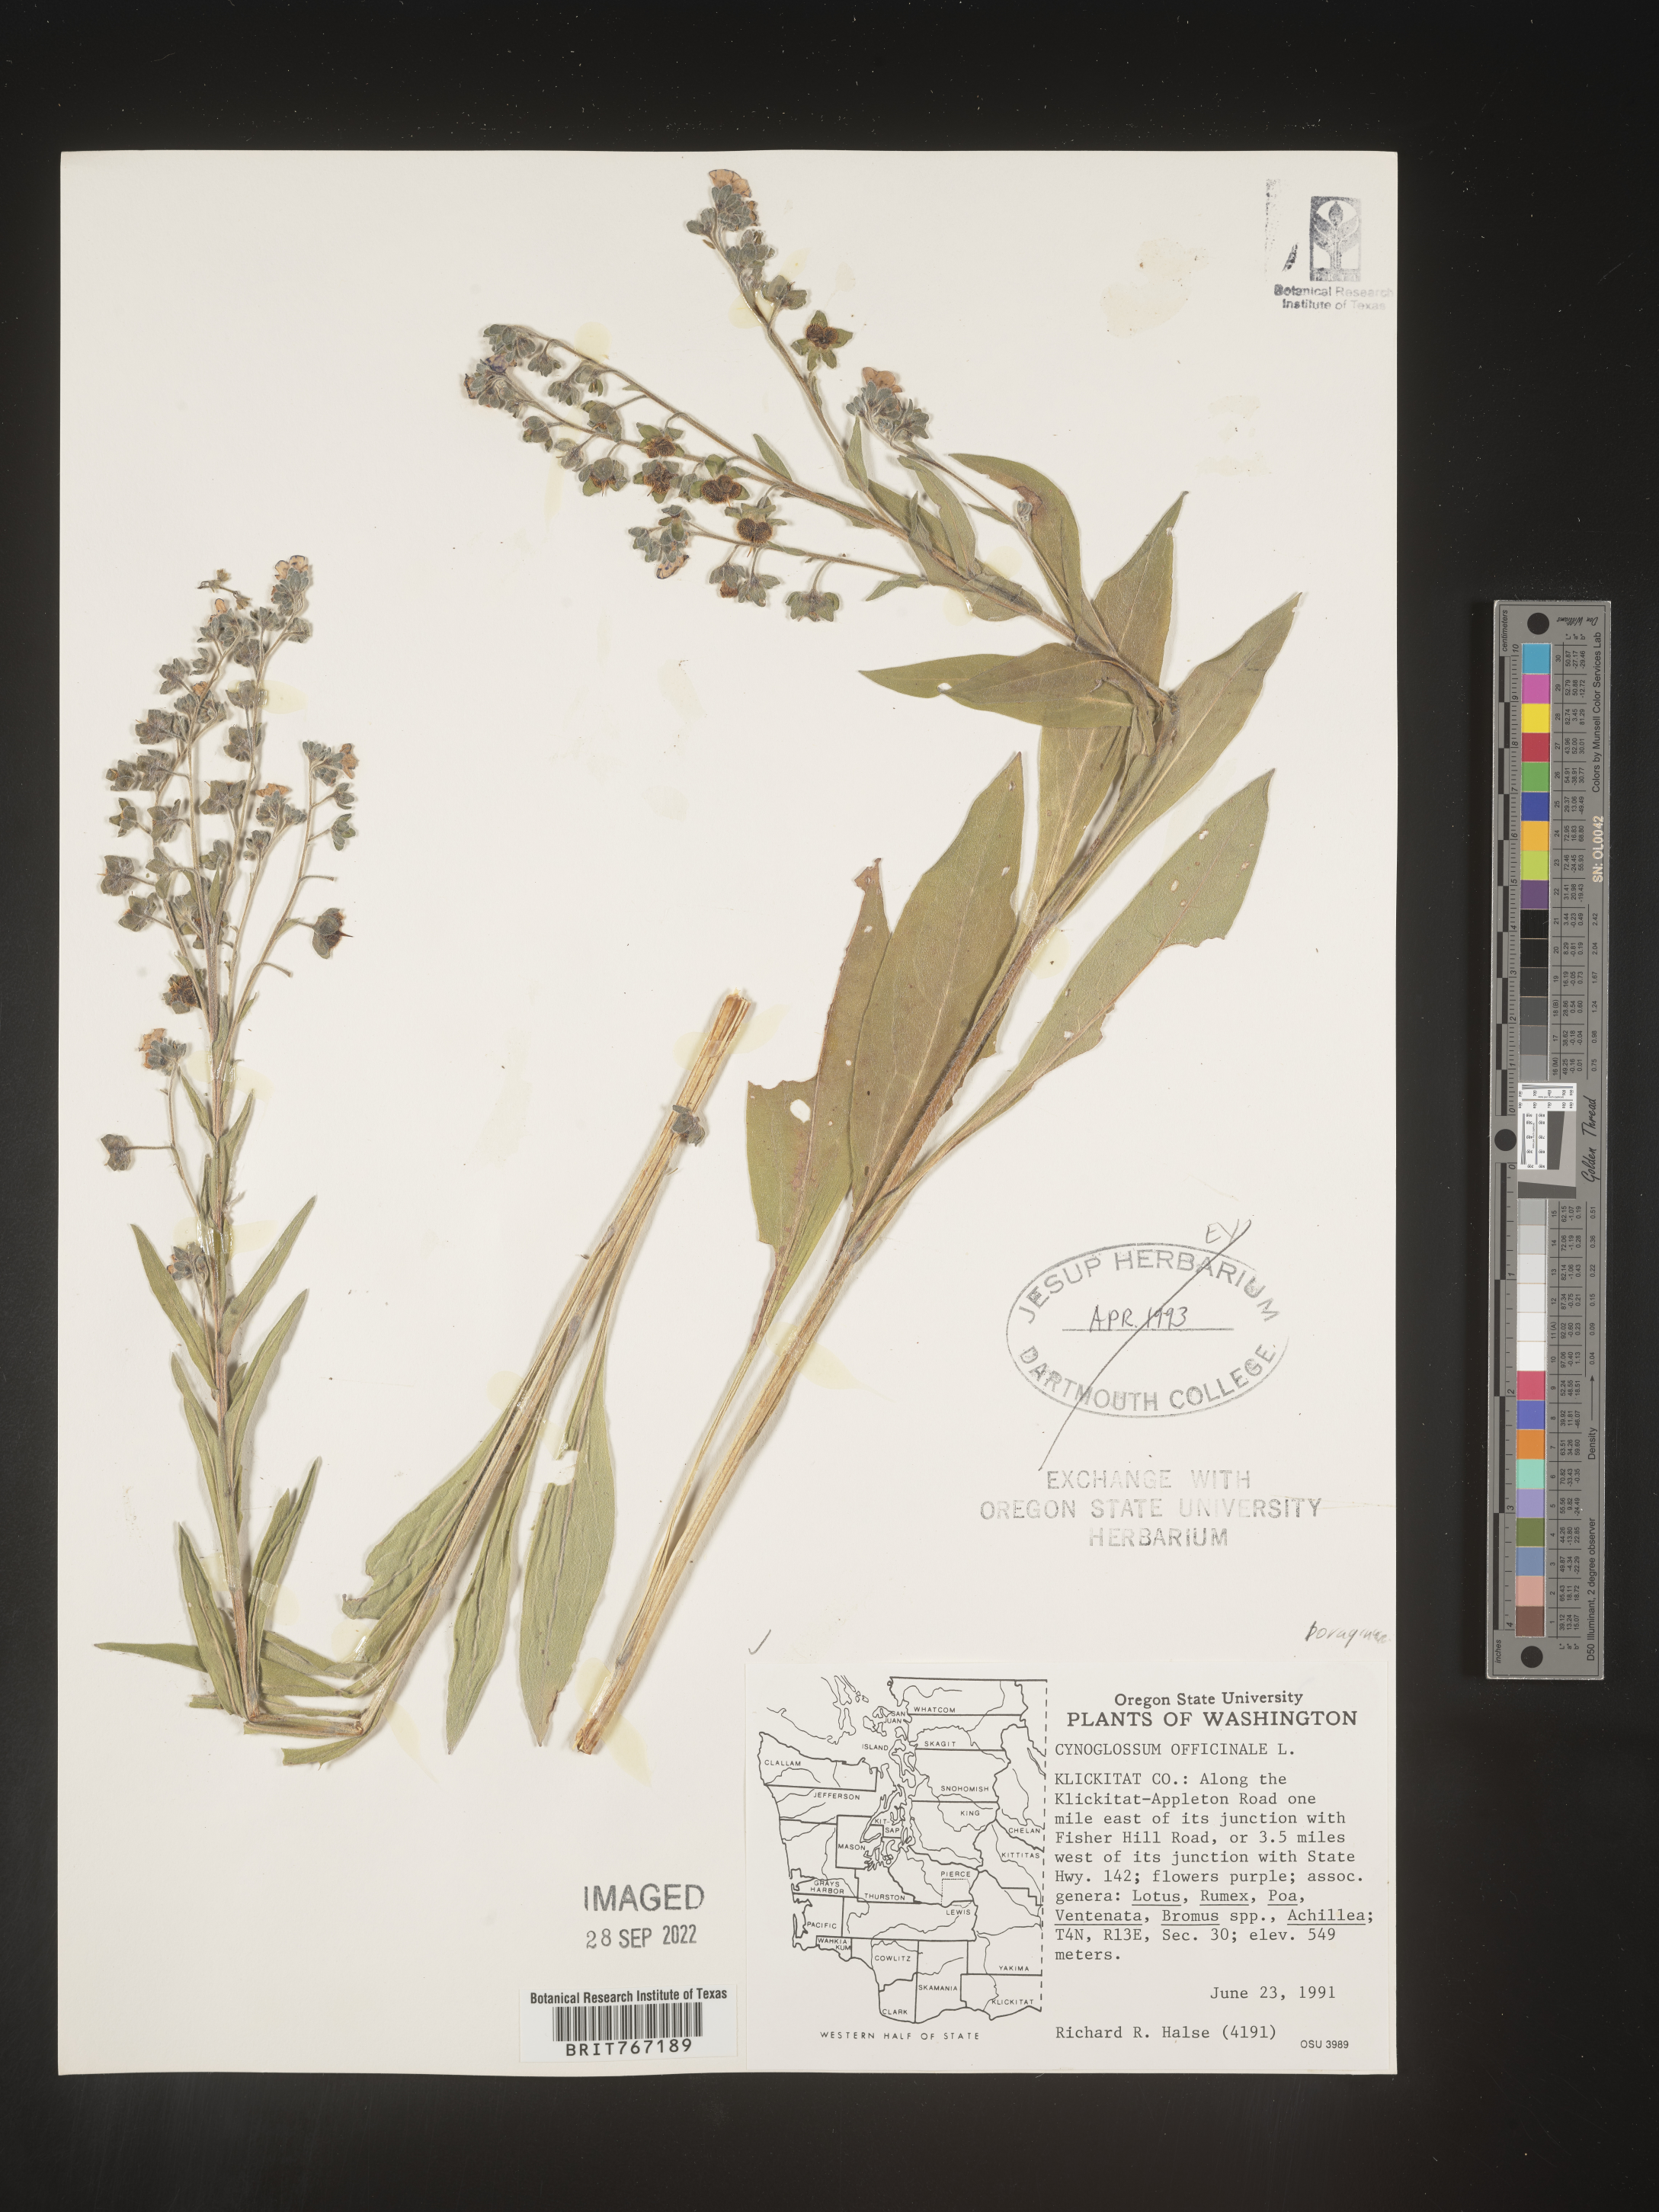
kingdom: Plantae
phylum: Tracheophyta
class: Magnoliopsida
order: Boraginales
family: Boraginaceae
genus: Cynoglossum
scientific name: Cynoglossum
